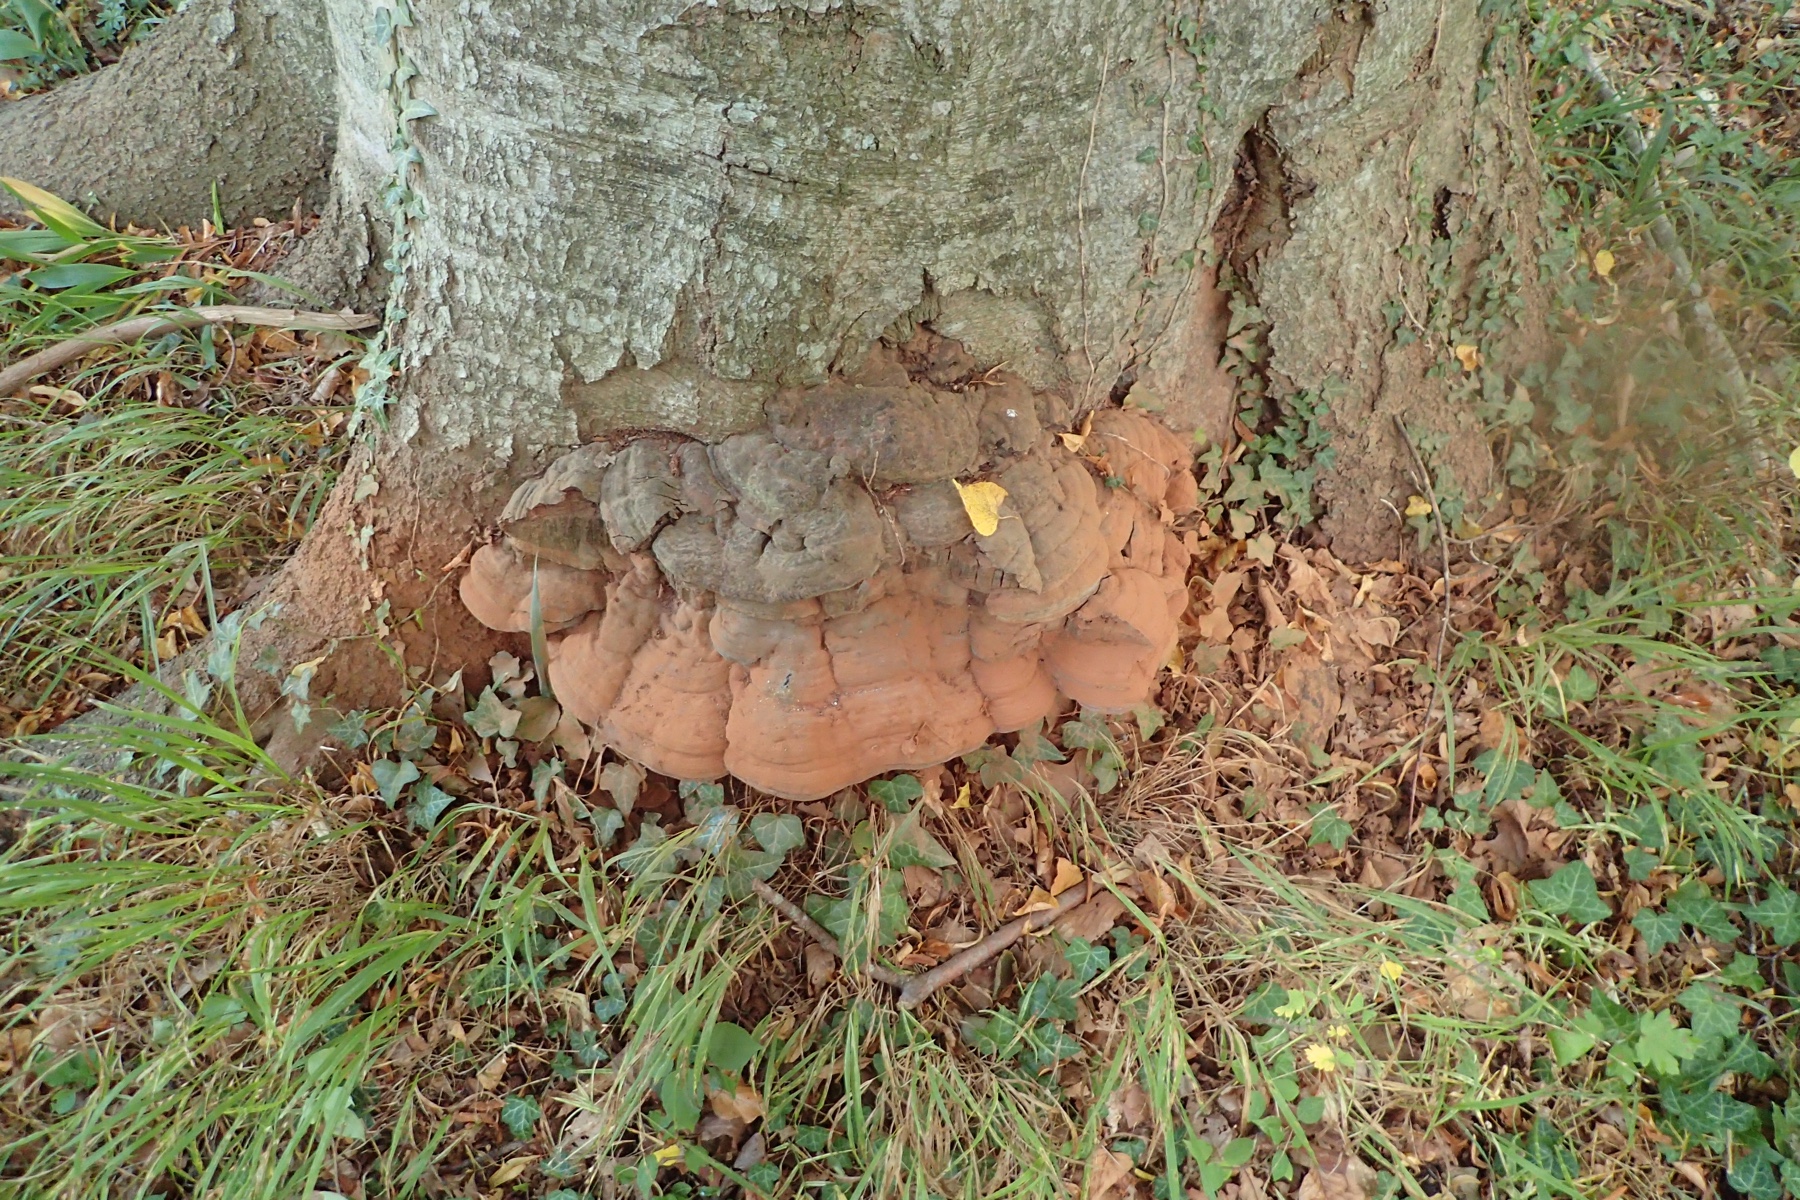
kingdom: Fungi
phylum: Basidiomycota
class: Agaricomycetes
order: Polyporales
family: Polyporaceae
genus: Ganoderma
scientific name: Ganoderma pfeifferi
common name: kobberrød lakporesvamp
